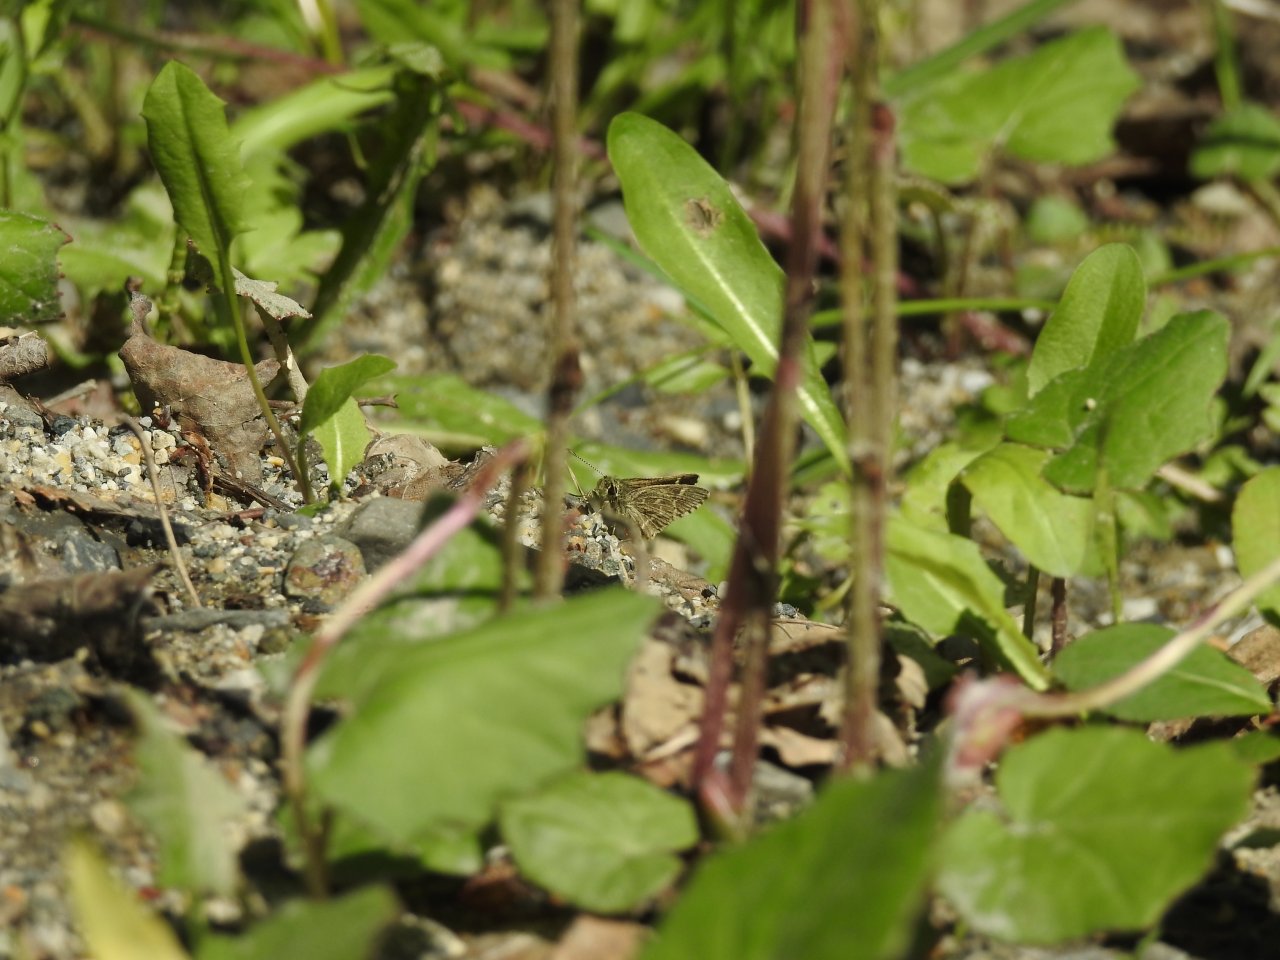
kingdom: Animalia
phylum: Arthropoda
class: Insecta
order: Lepidoptera
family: Hesperiidae
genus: Mastor
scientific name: Mastor hegon
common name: Pepper and Salt Skipper
